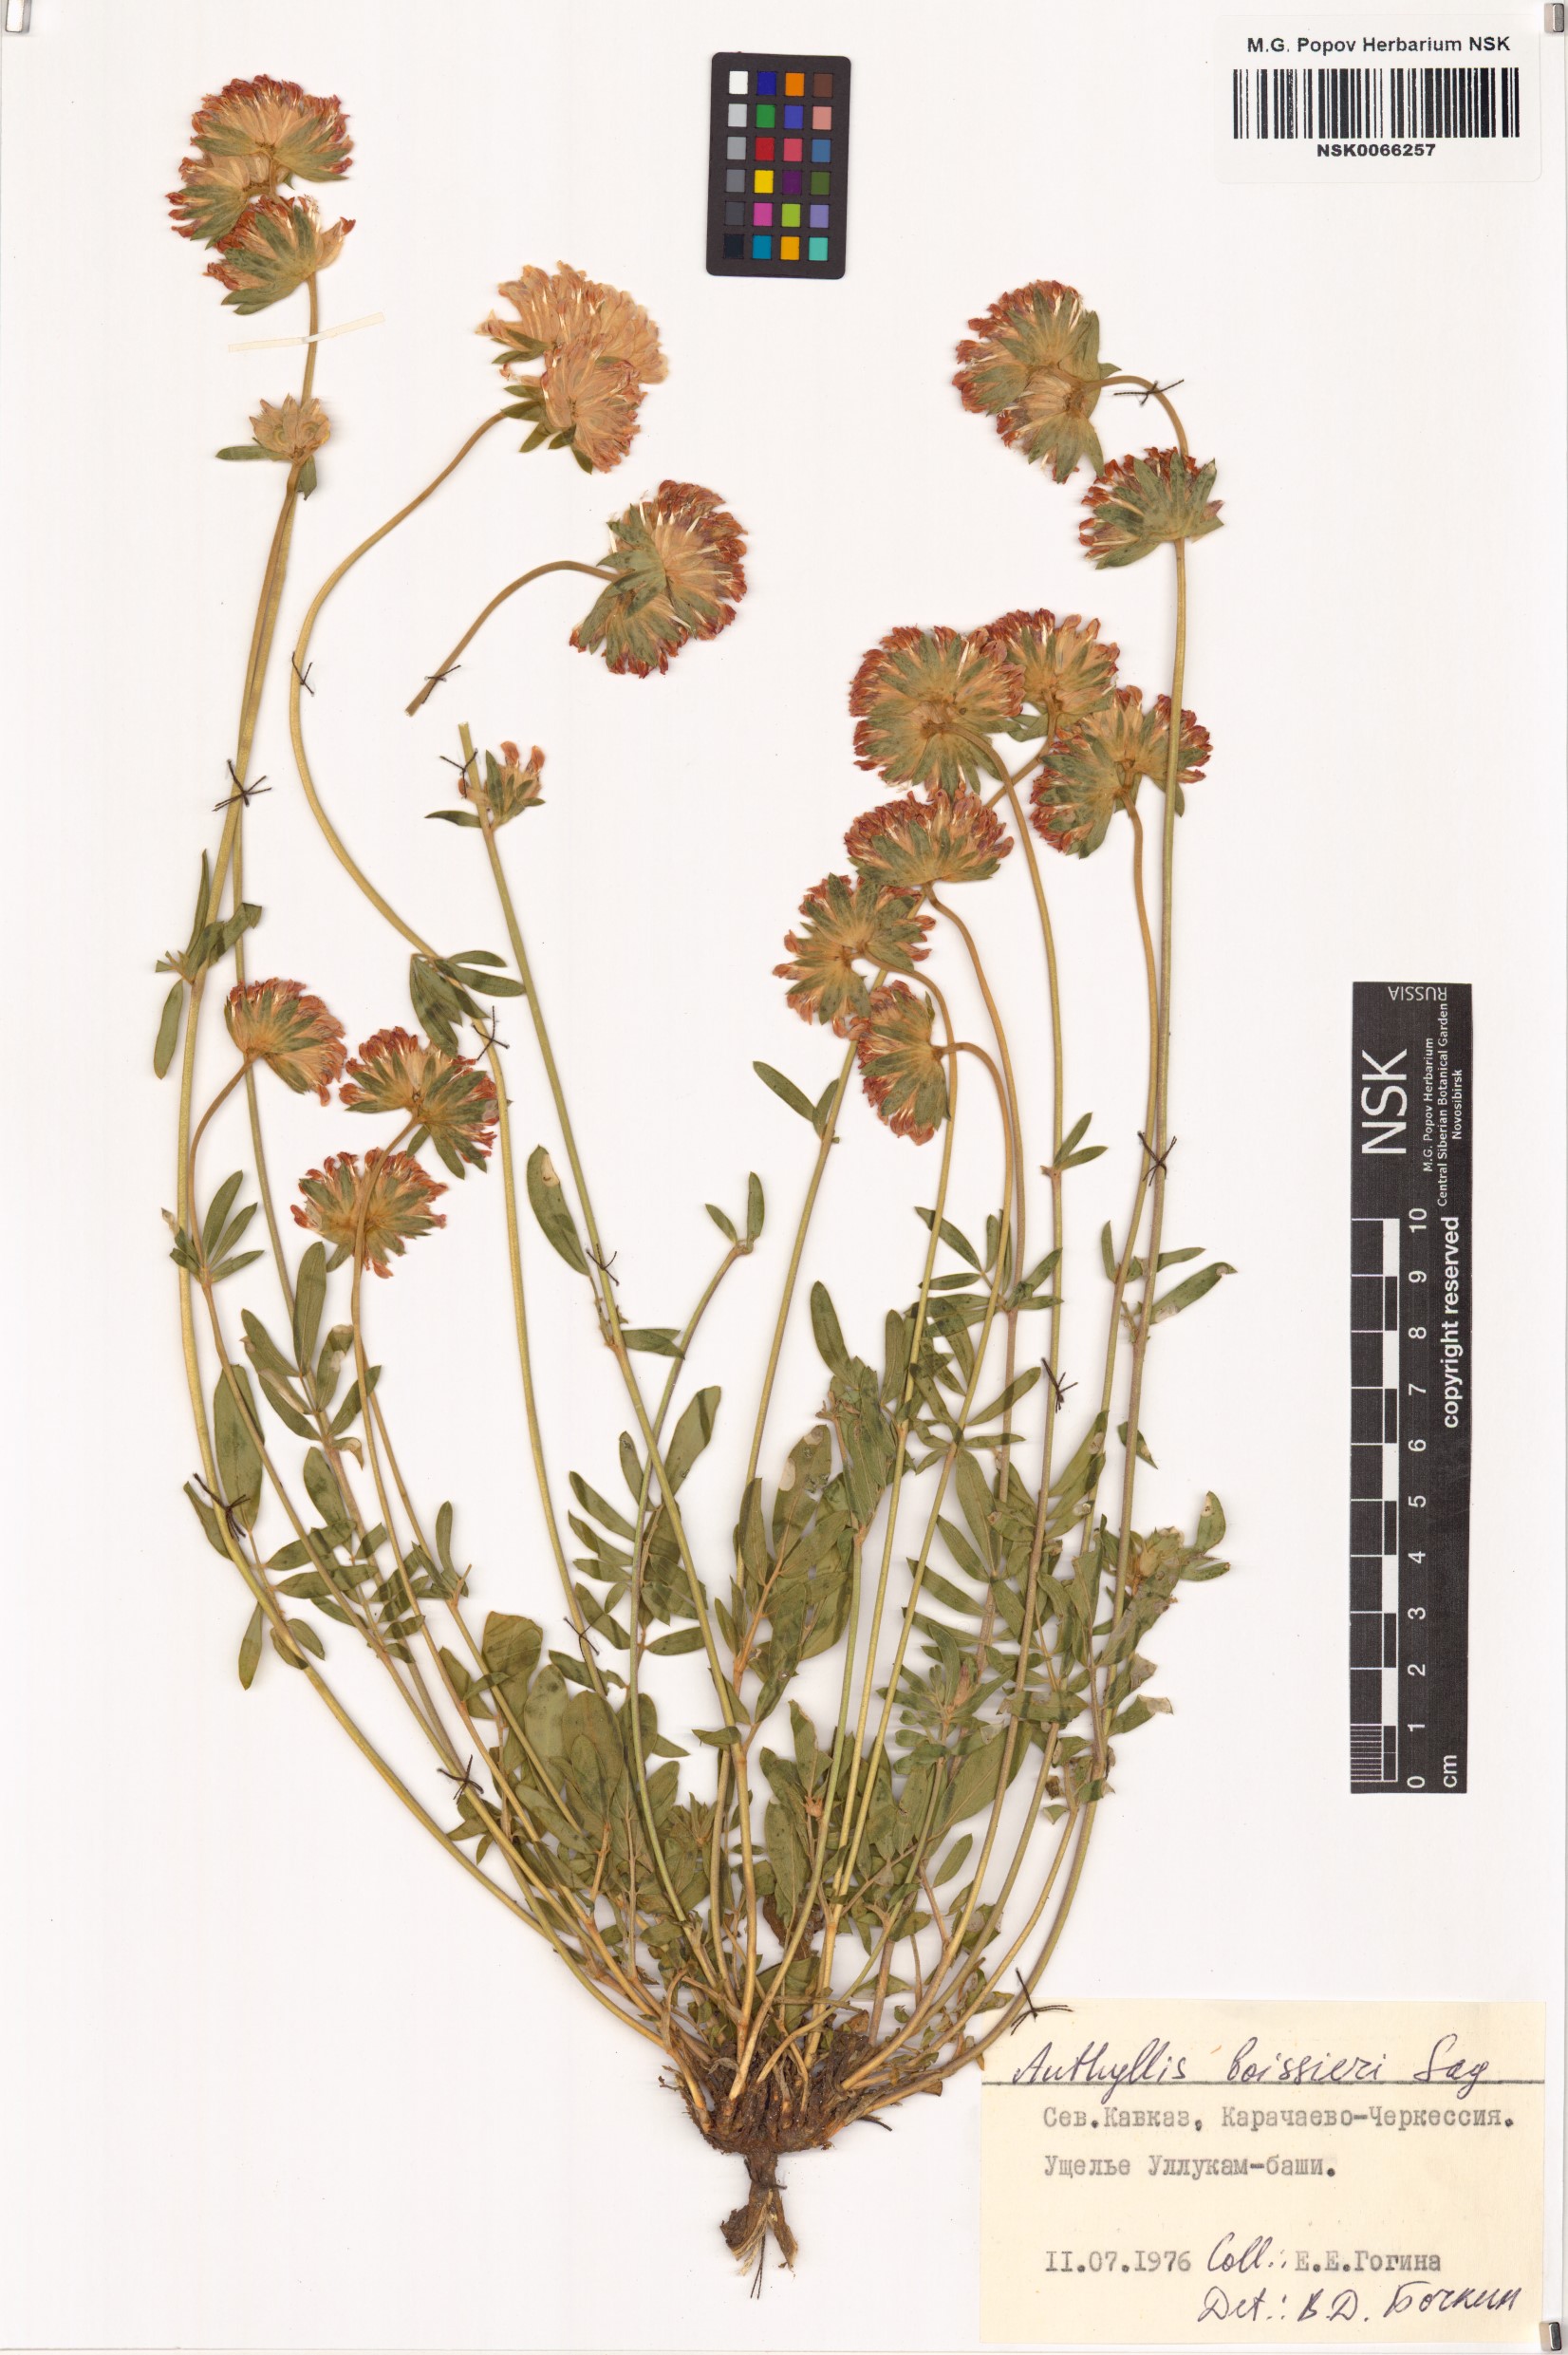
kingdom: Plantae
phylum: Tracheophyta
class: Magnoliopsida
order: Fabales
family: Fabaceae
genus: Anthyllis
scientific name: Anthyllis vulneraria
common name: Kidney vetch
